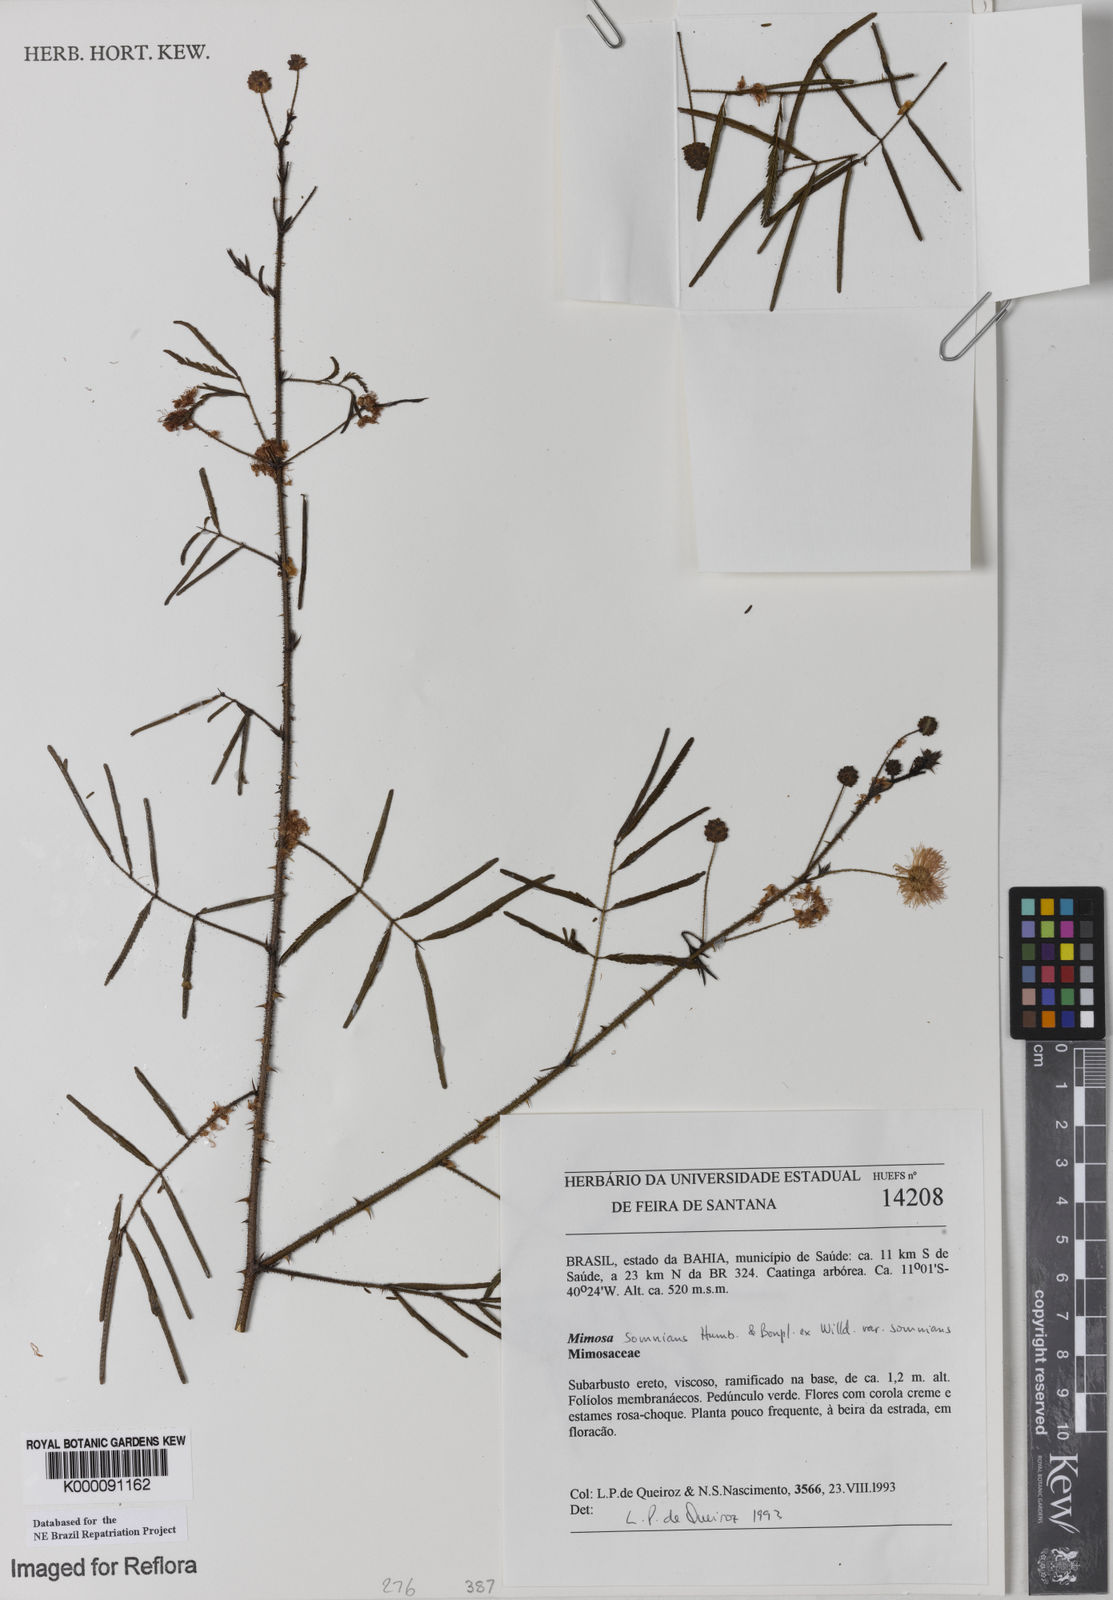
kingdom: Plantae
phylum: Tracheophyta
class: Magnoliopsida
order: Fabales
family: Fabaceae
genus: Mimosa
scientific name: Mimosa somnians
